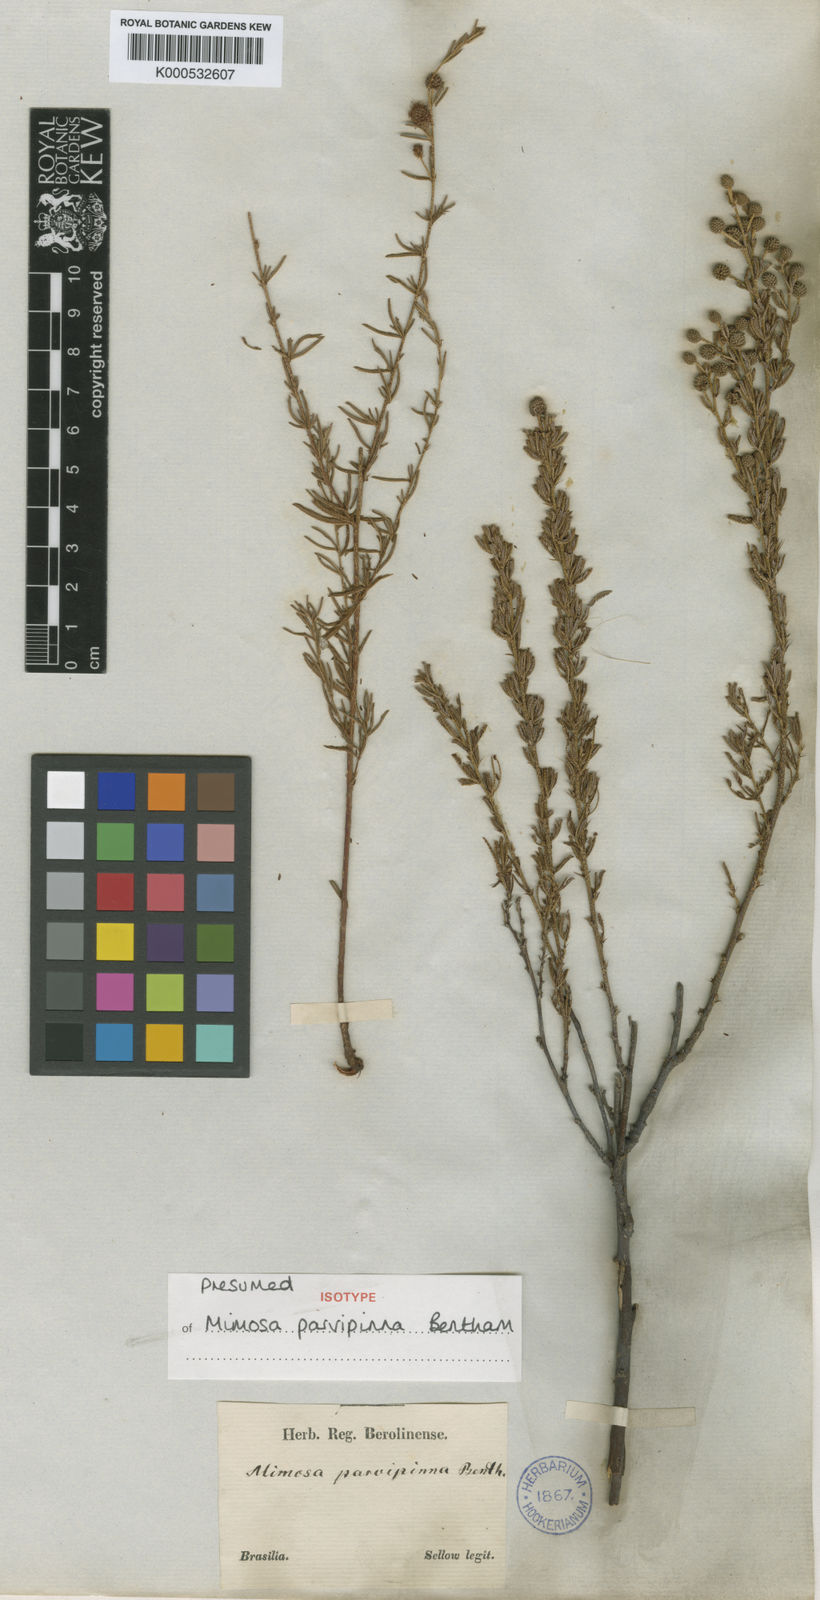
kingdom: Plantae
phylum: Tracheophyta
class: Magnoliopsida
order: Fabales
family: Fabaceae
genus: Mimosa
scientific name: Mimosa parvipinna
